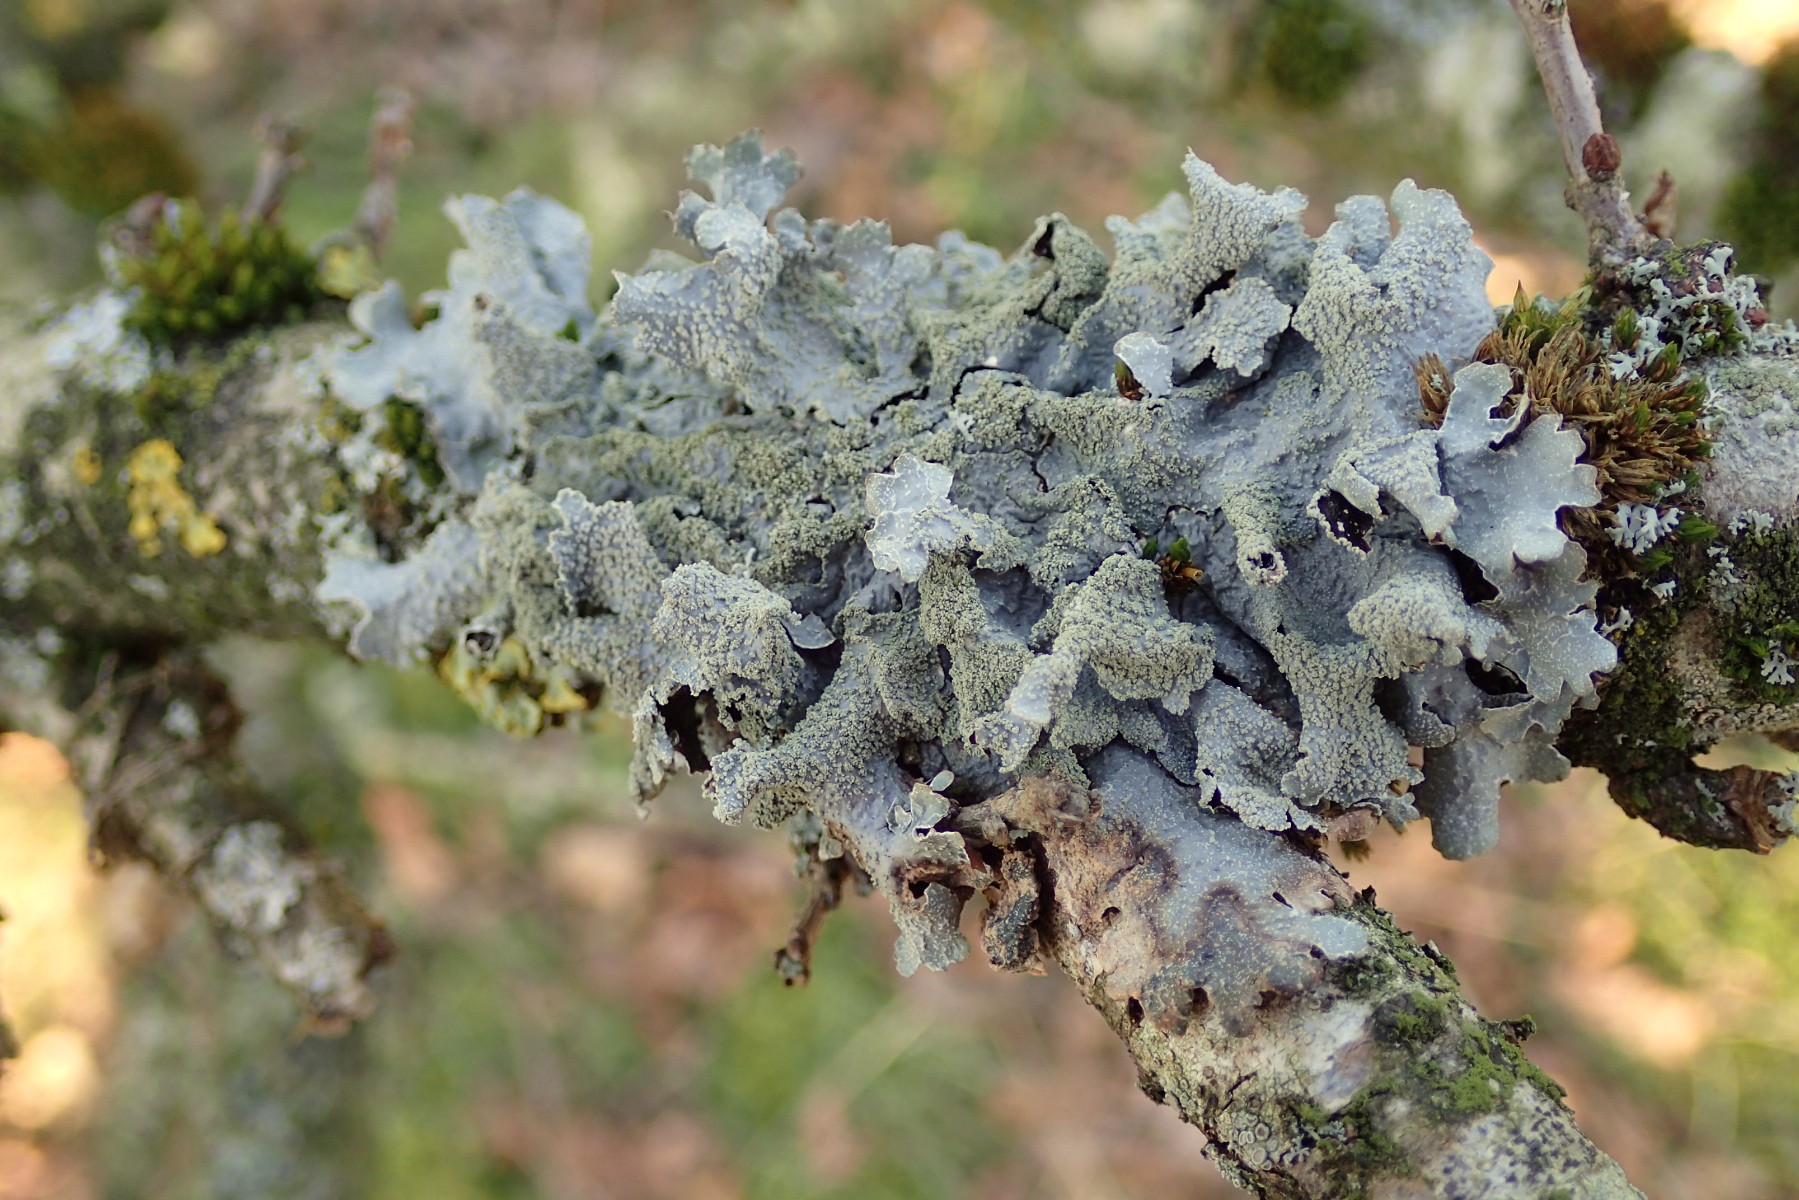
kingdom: Fungi
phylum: Ascomycota
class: Lecanoromycetes
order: Lecanorales
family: Parmeliaceae
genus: Parmelia
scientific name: Parmelia submontana
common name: langlobet skållav
